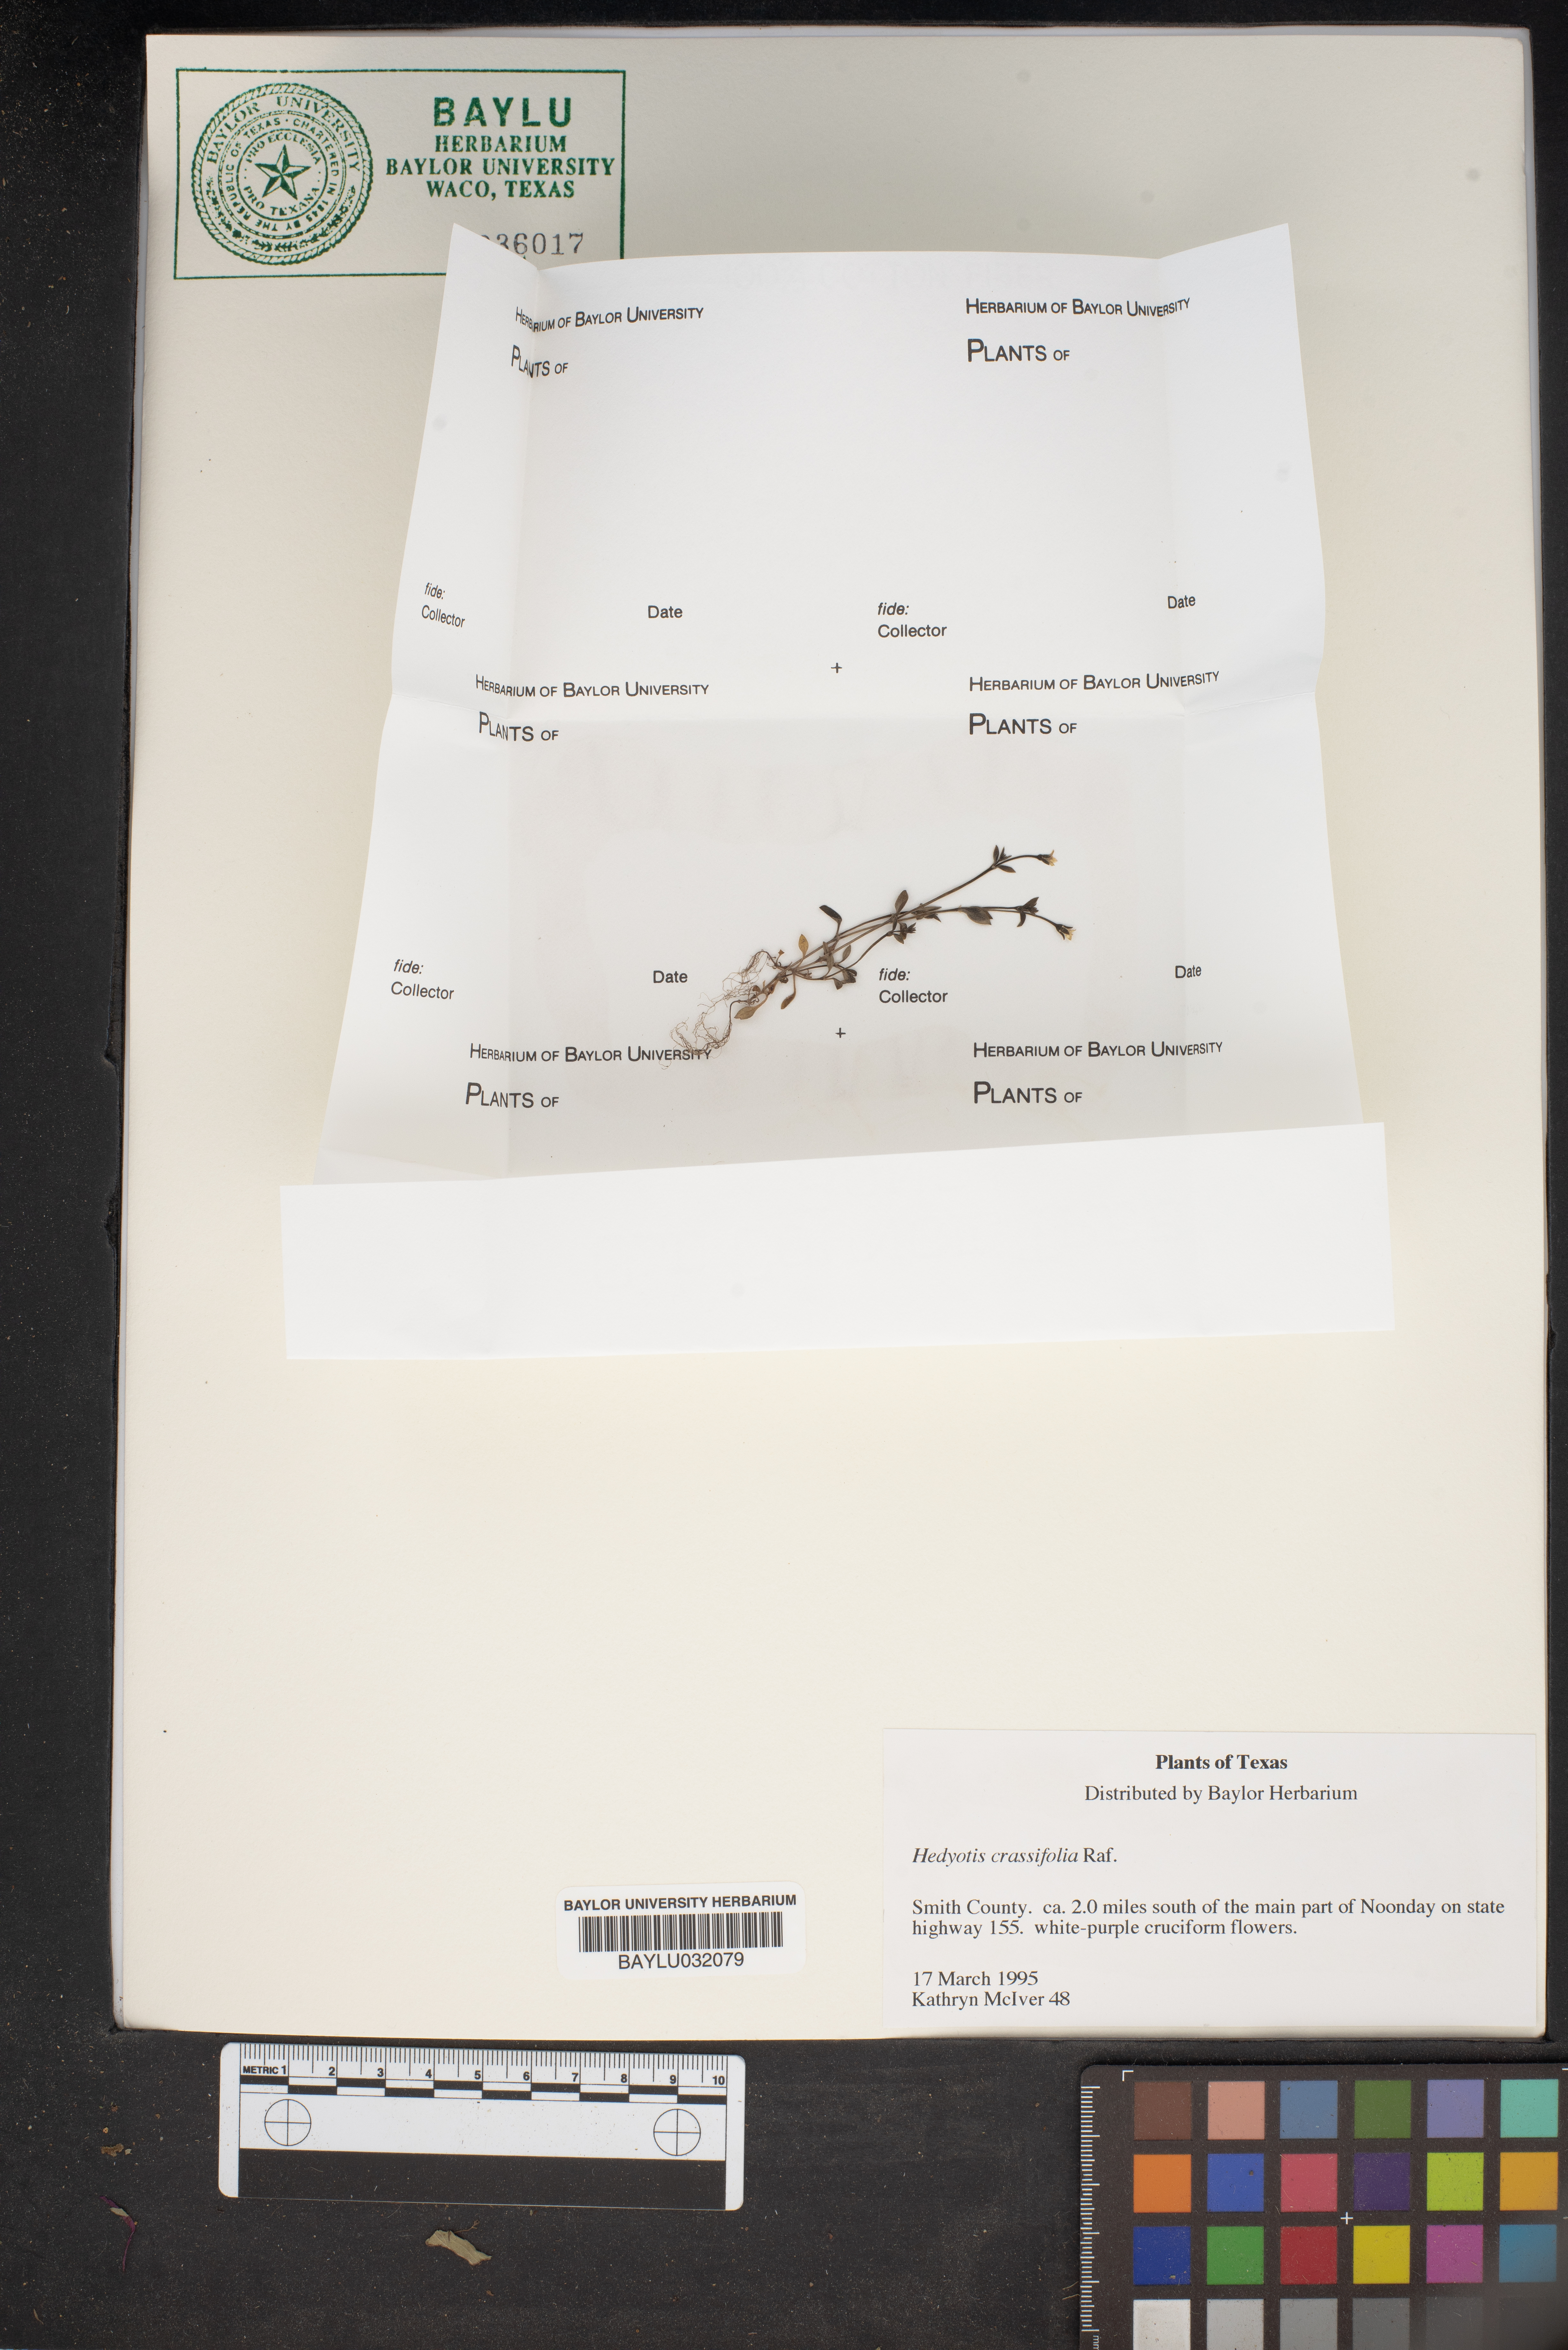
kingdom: Plantae
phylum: Tracheophyta
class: Magnoliopsida
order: Gentianales
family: Rubiaceae
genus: Houstonia
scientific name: Houstonia pusilla
